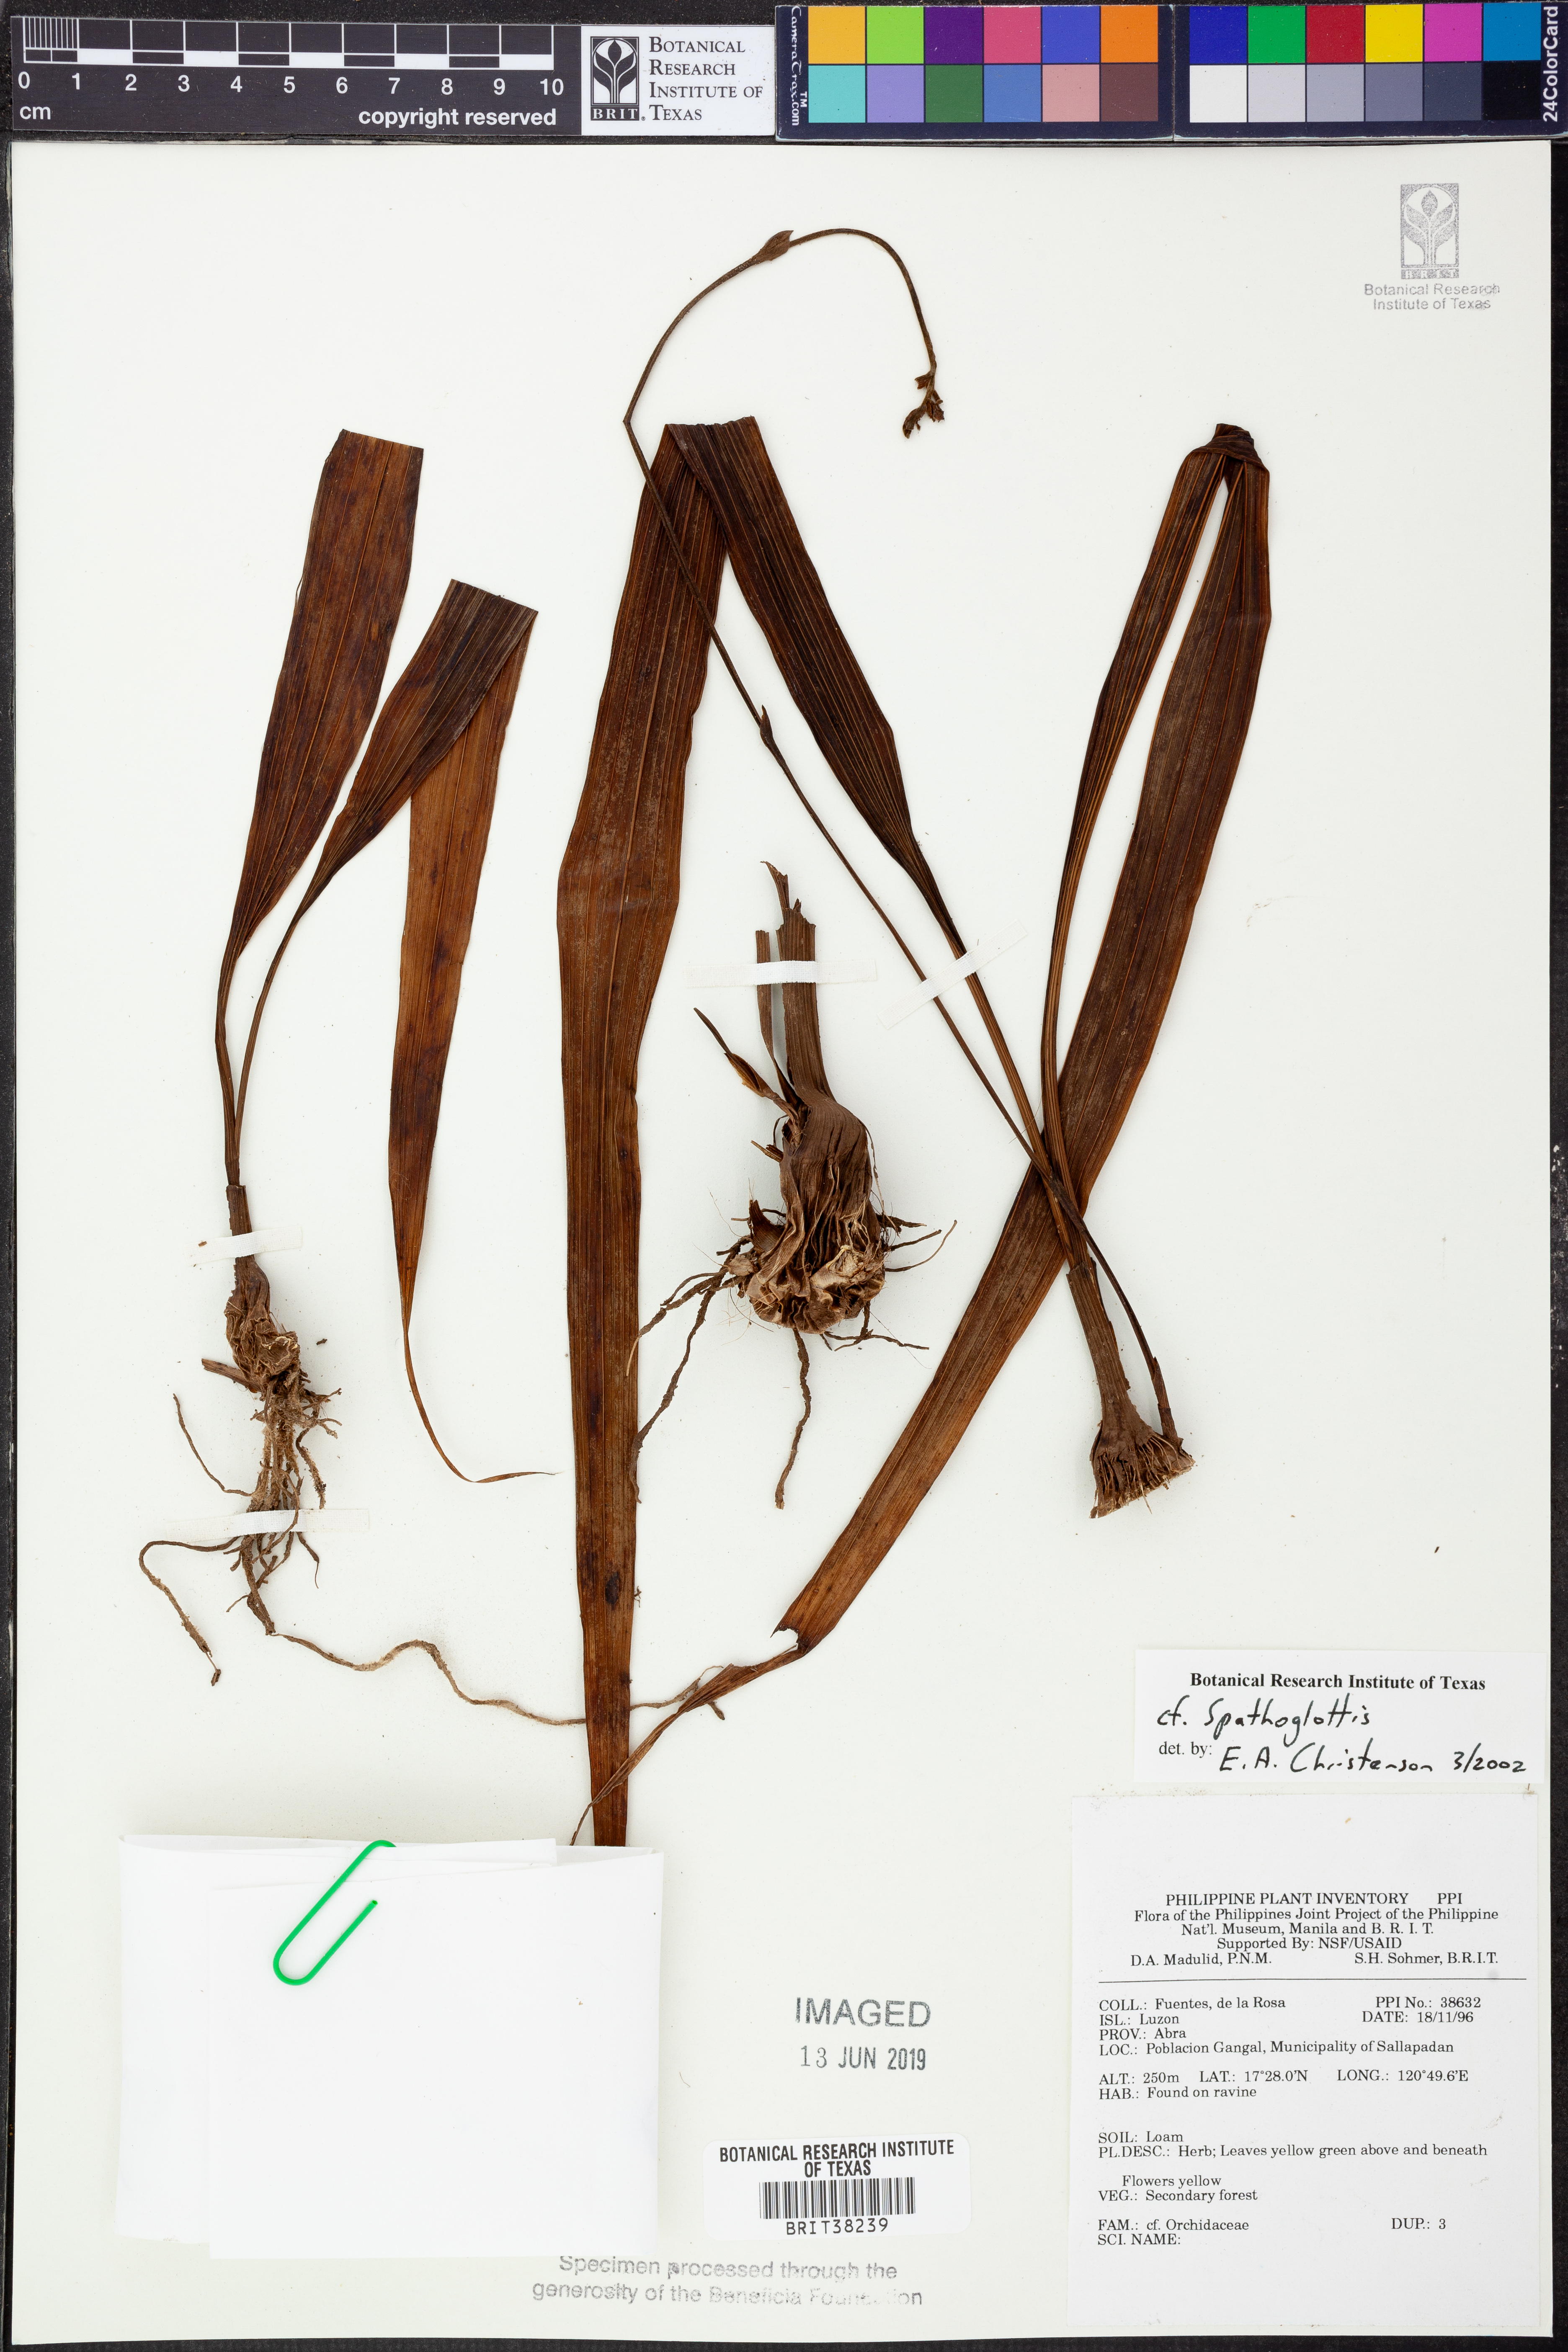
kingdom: Plantae
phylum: Tracheophyta
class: Liliopsida
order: Asparagales
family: Orchidaceae
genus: Spathoglottis
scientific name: Spathoglottis
